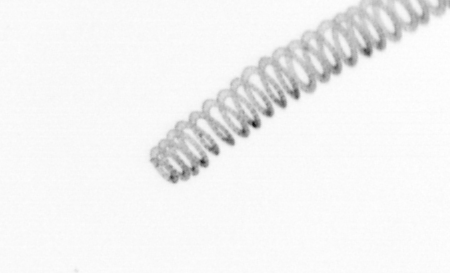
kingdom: Chromista
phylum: Ochrophyta
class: Bacillariophyceae
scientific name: Bacillariophyceae
